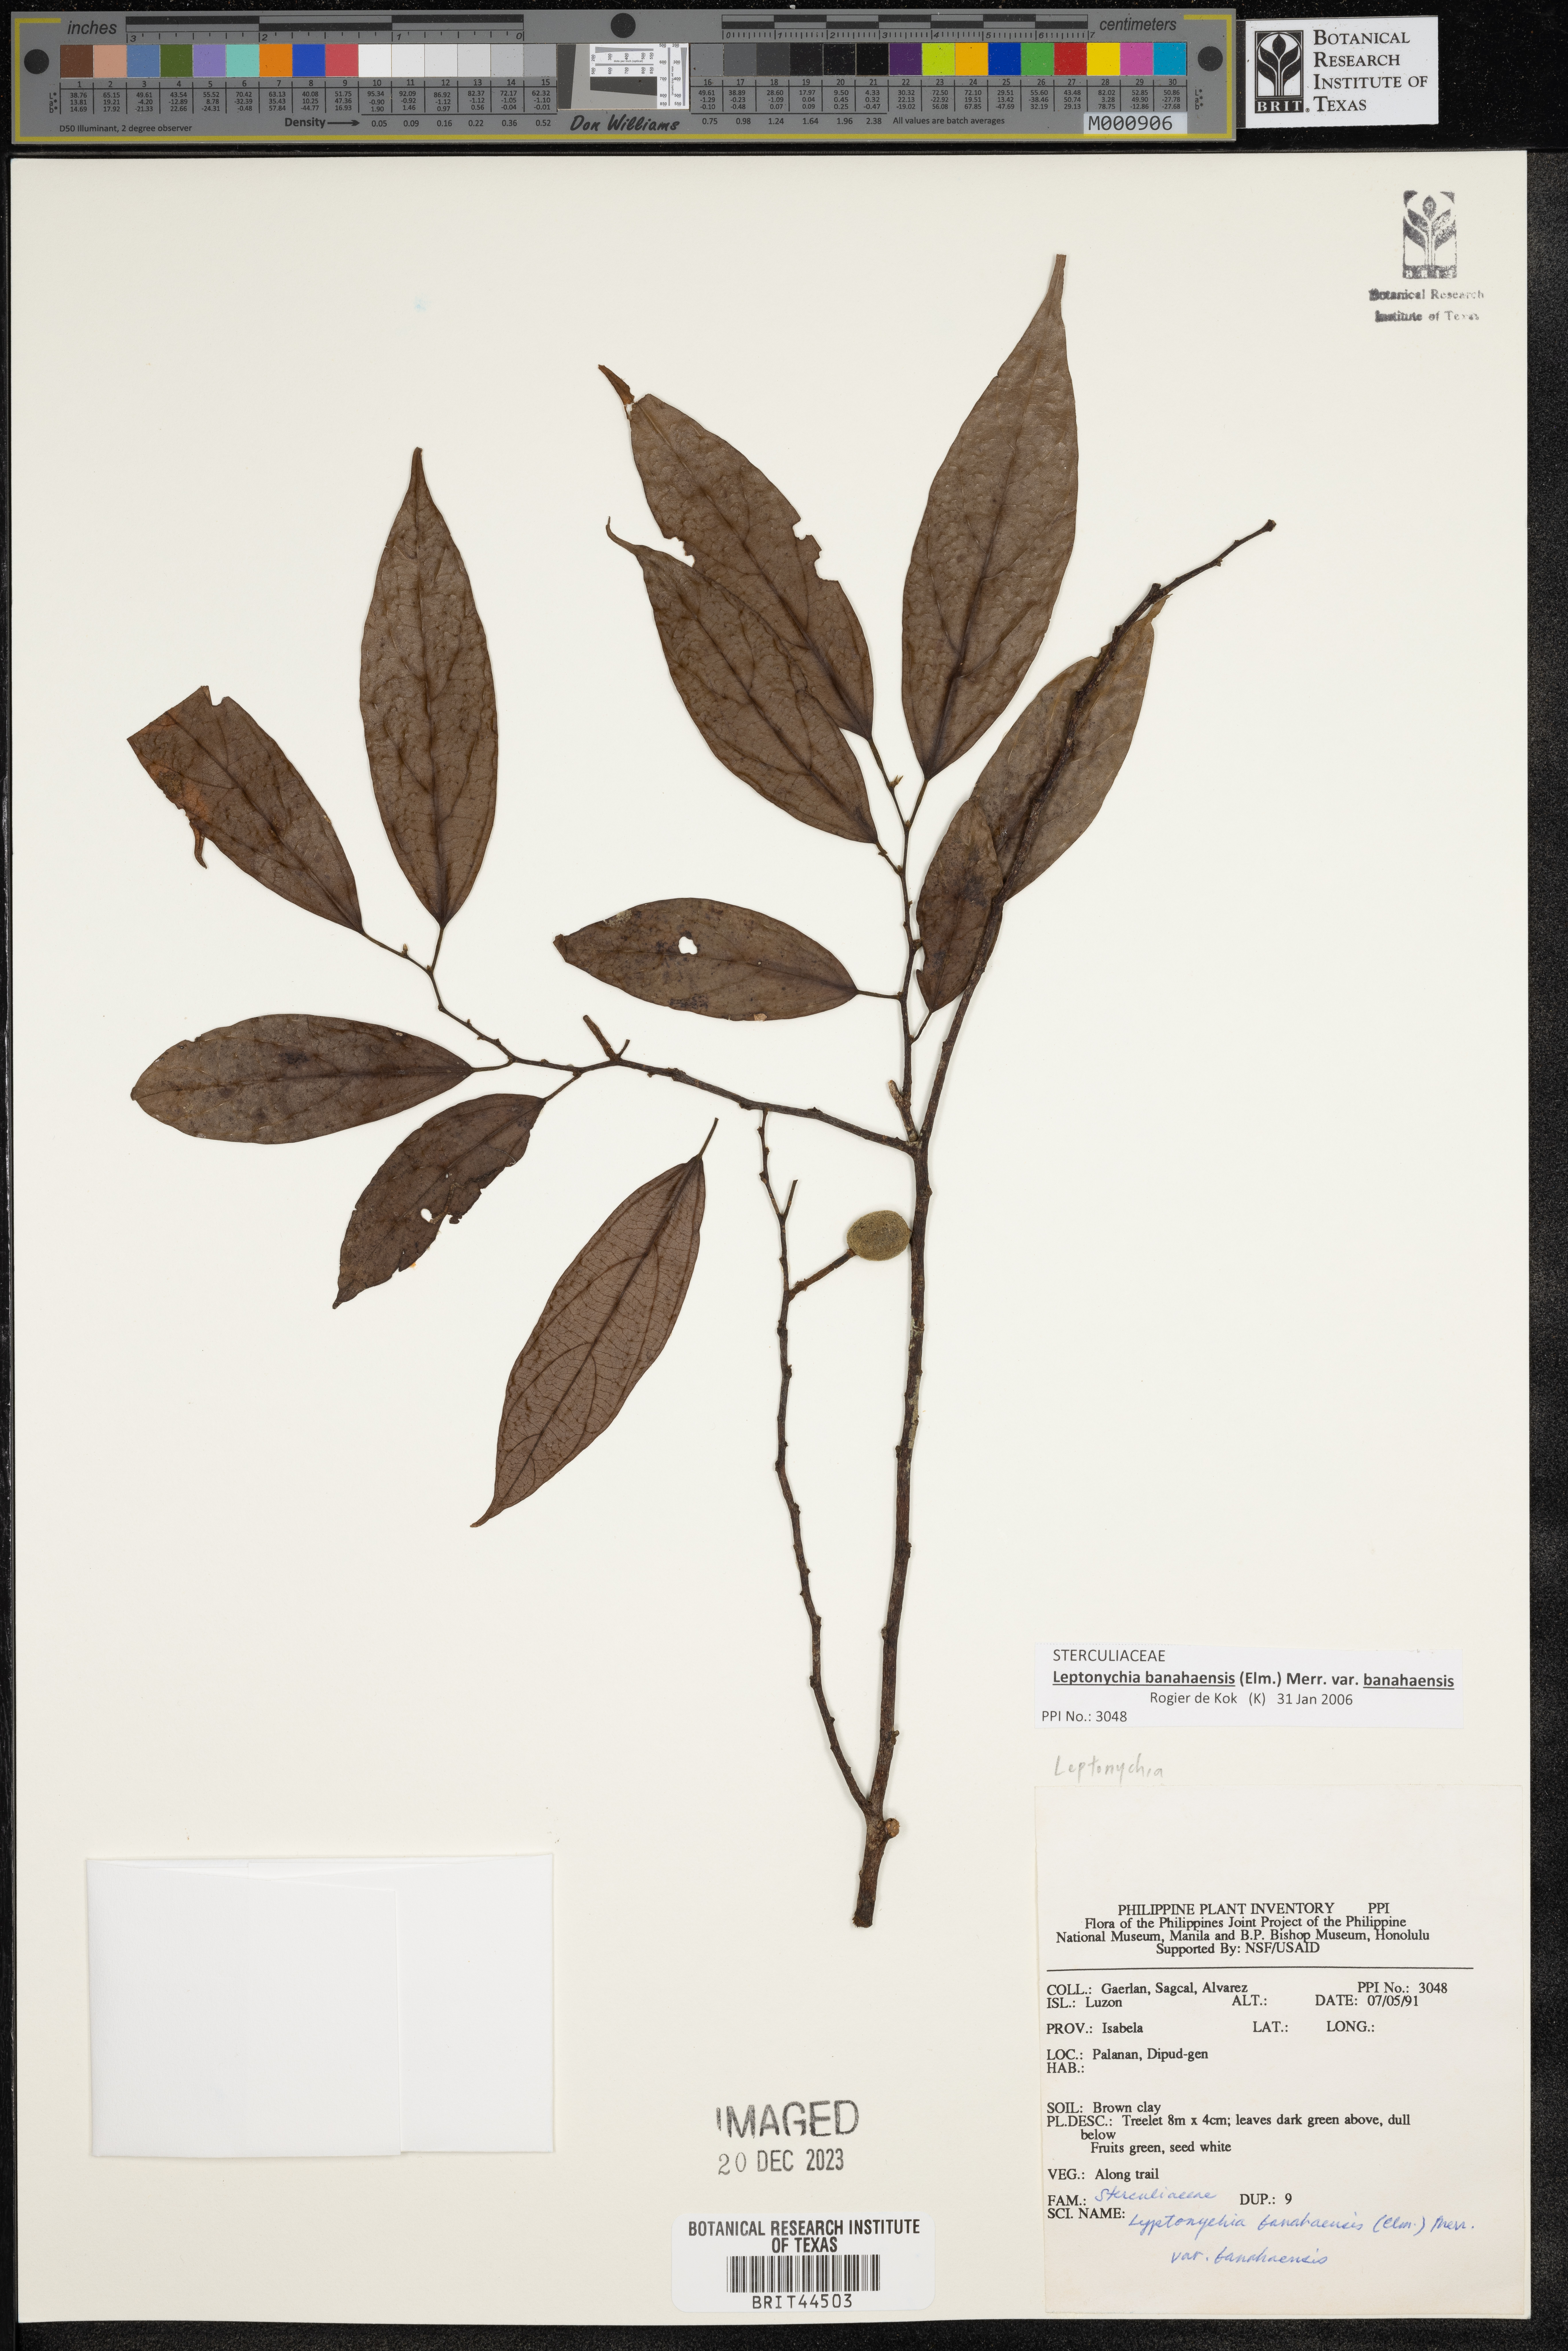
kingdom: Plantae
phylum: Tracheophyta
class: Magnoliopsida
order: Malvales
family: Malvaceae
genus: Leptonychia
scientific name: Leptonychia banahaensis
